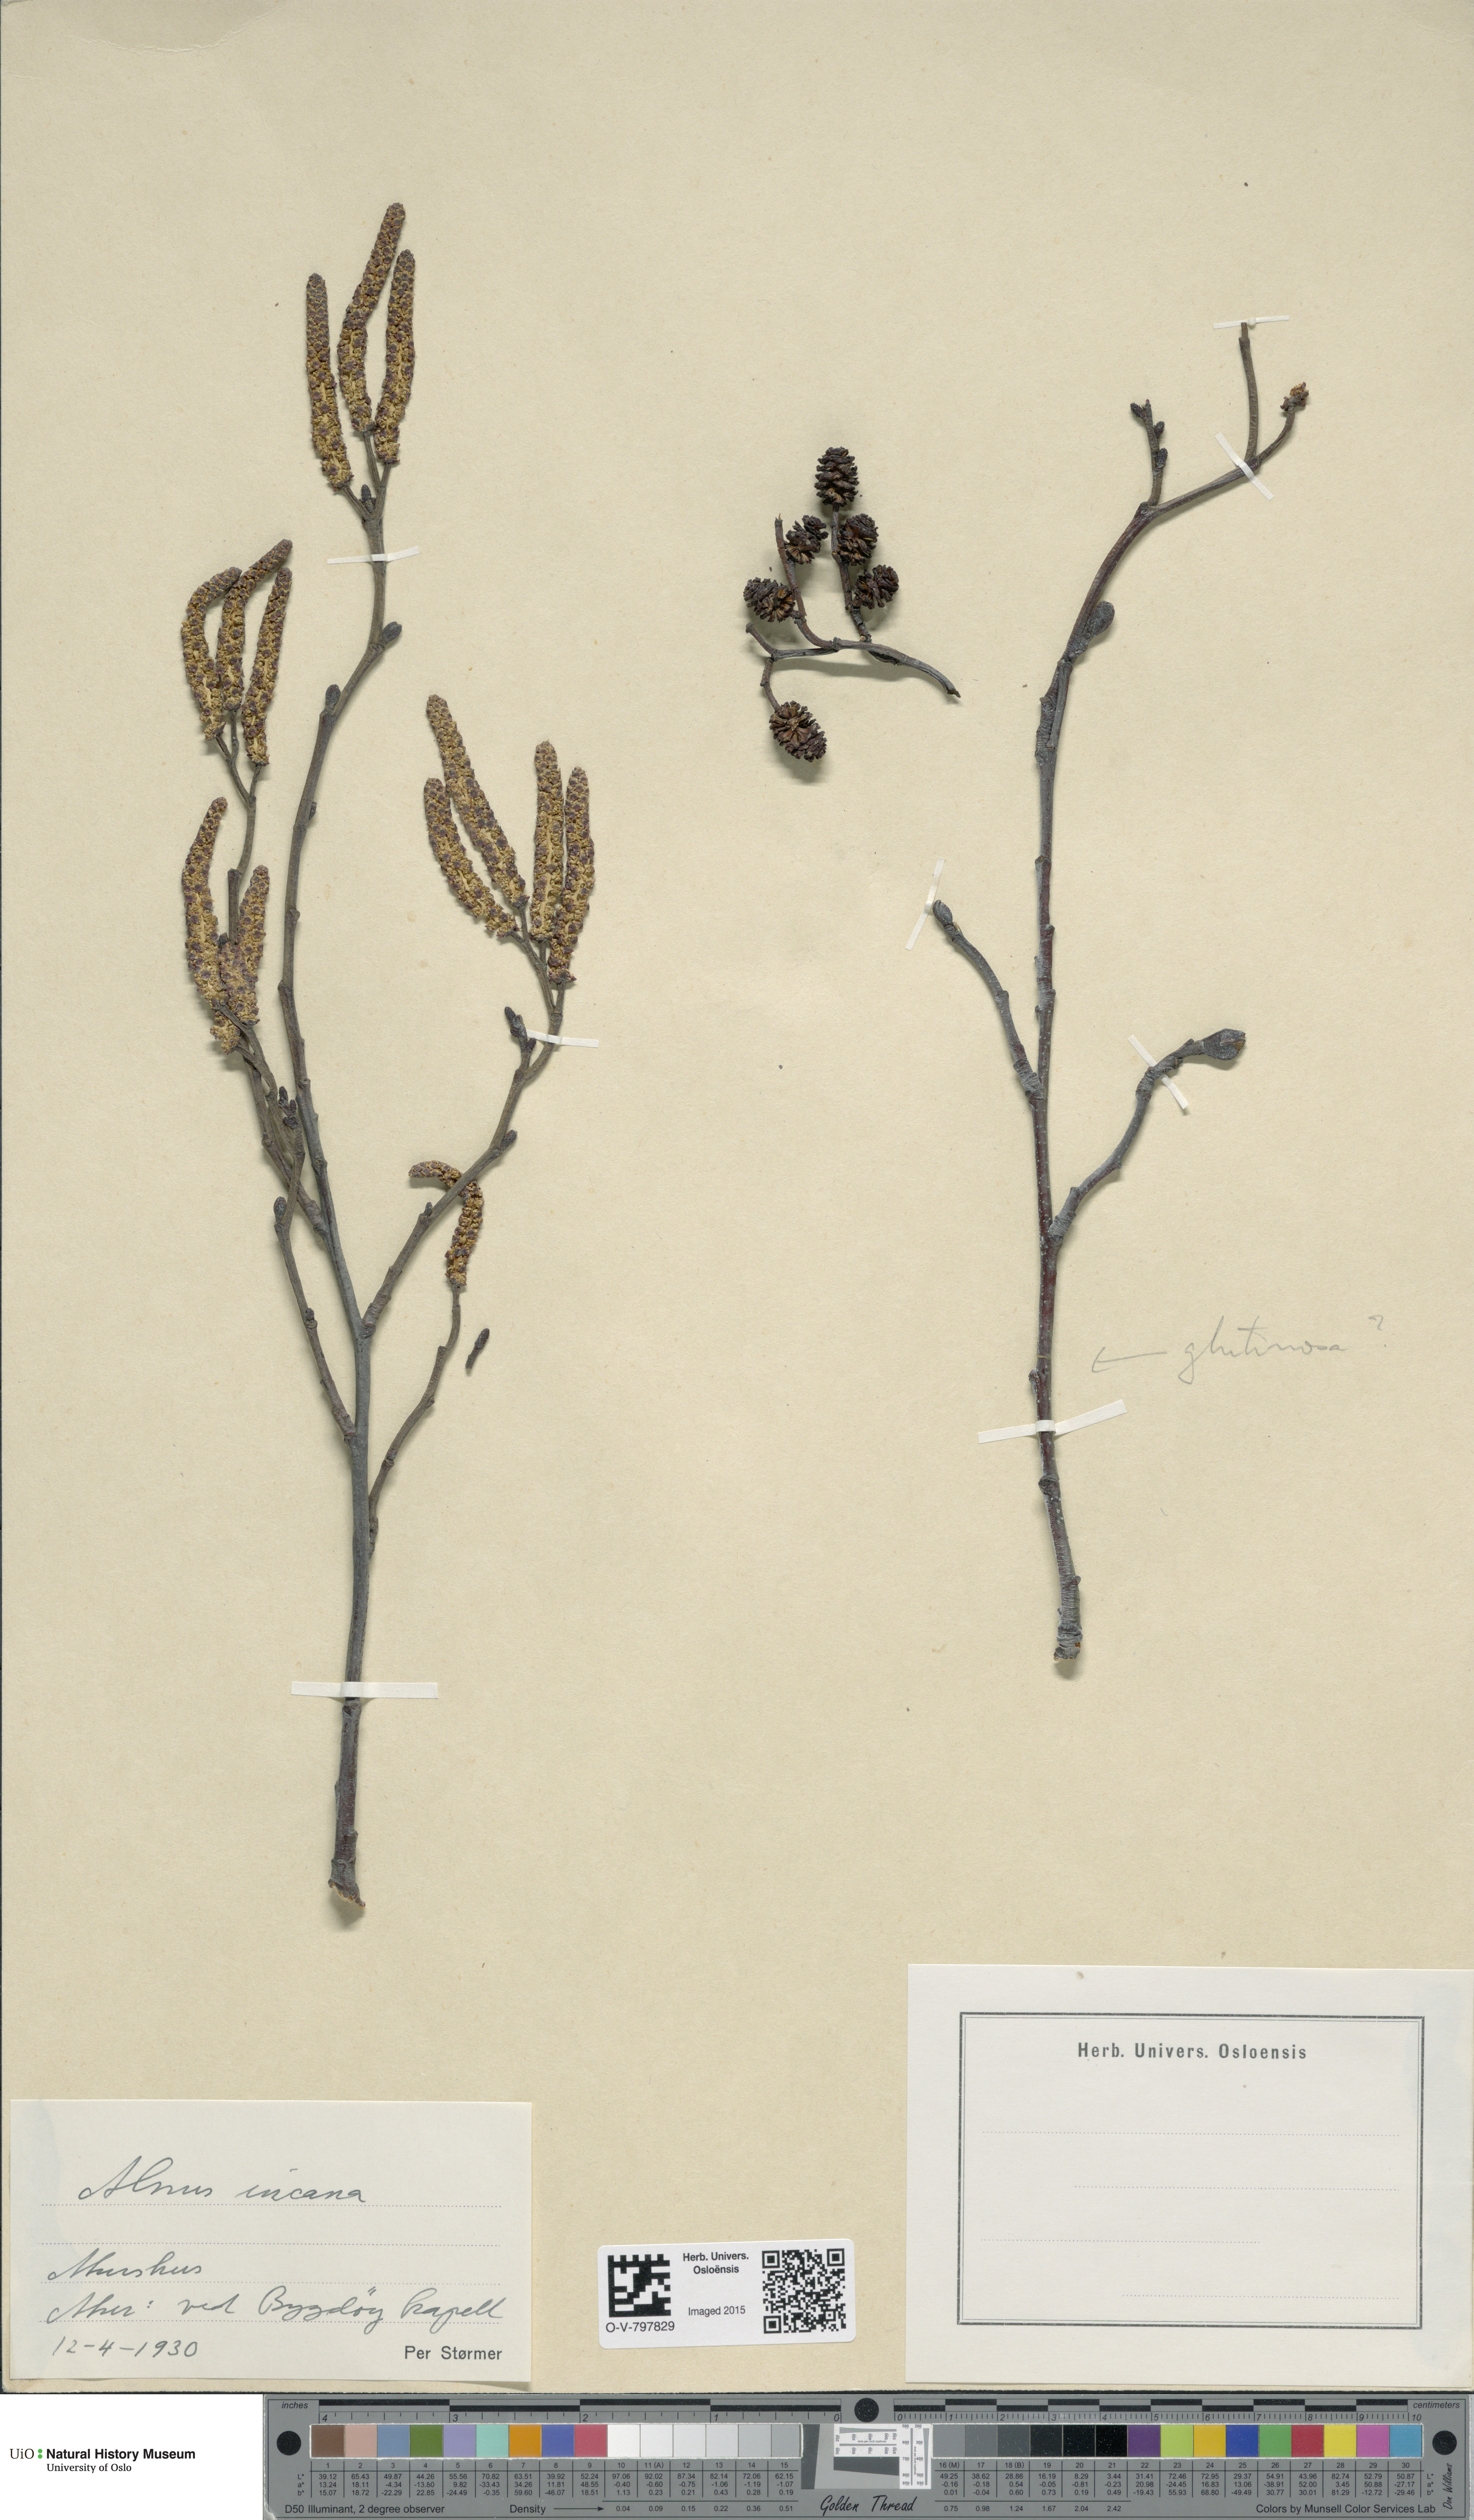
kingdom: Plantae
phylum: Tracheophyta
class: Magnoliopsida
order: Fagales
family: Betulaceae
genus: Alnus
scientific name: Alnus incana
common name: Grey alder
